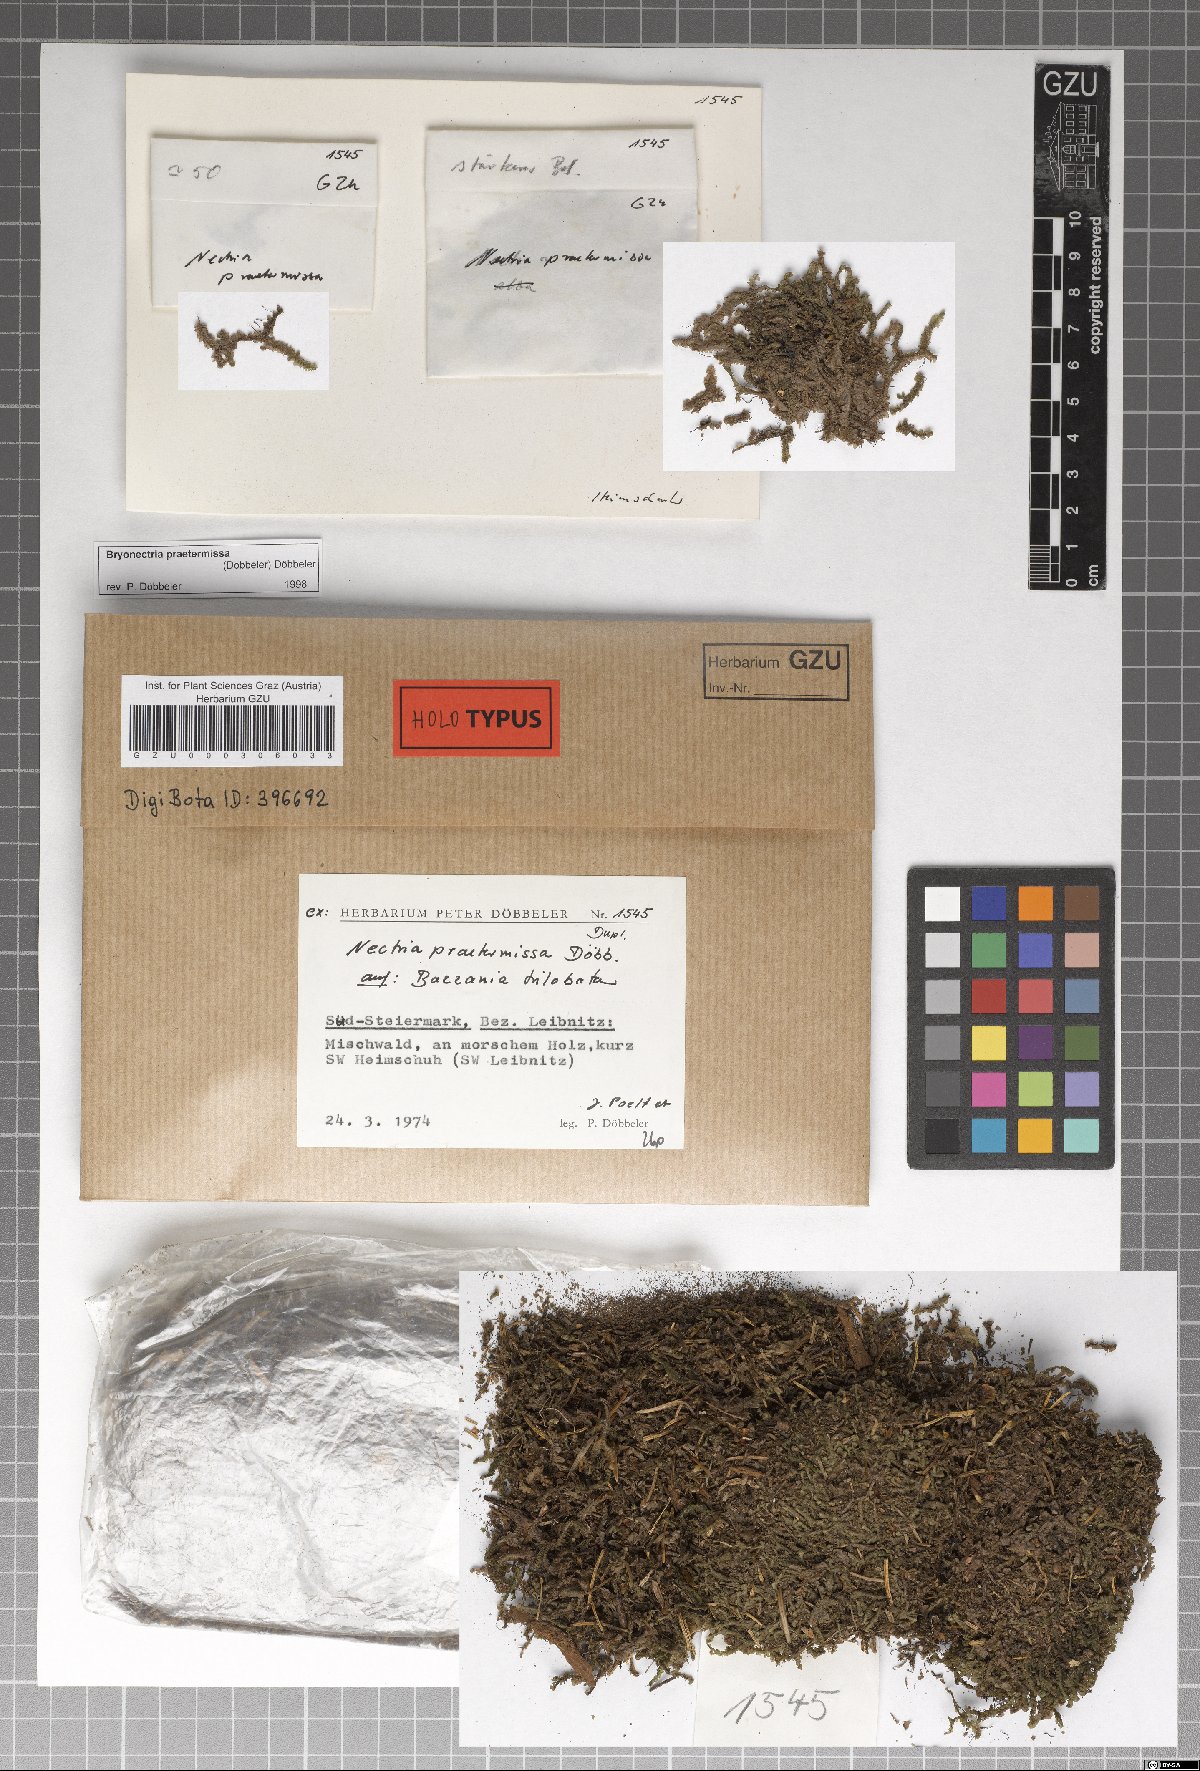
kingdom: Fungi
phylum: Ascomycota
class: Sordariomycetes
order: Hypocreales
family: Bionectriaceae
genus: Bryonectria
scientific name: Bryonectria praetermissa
